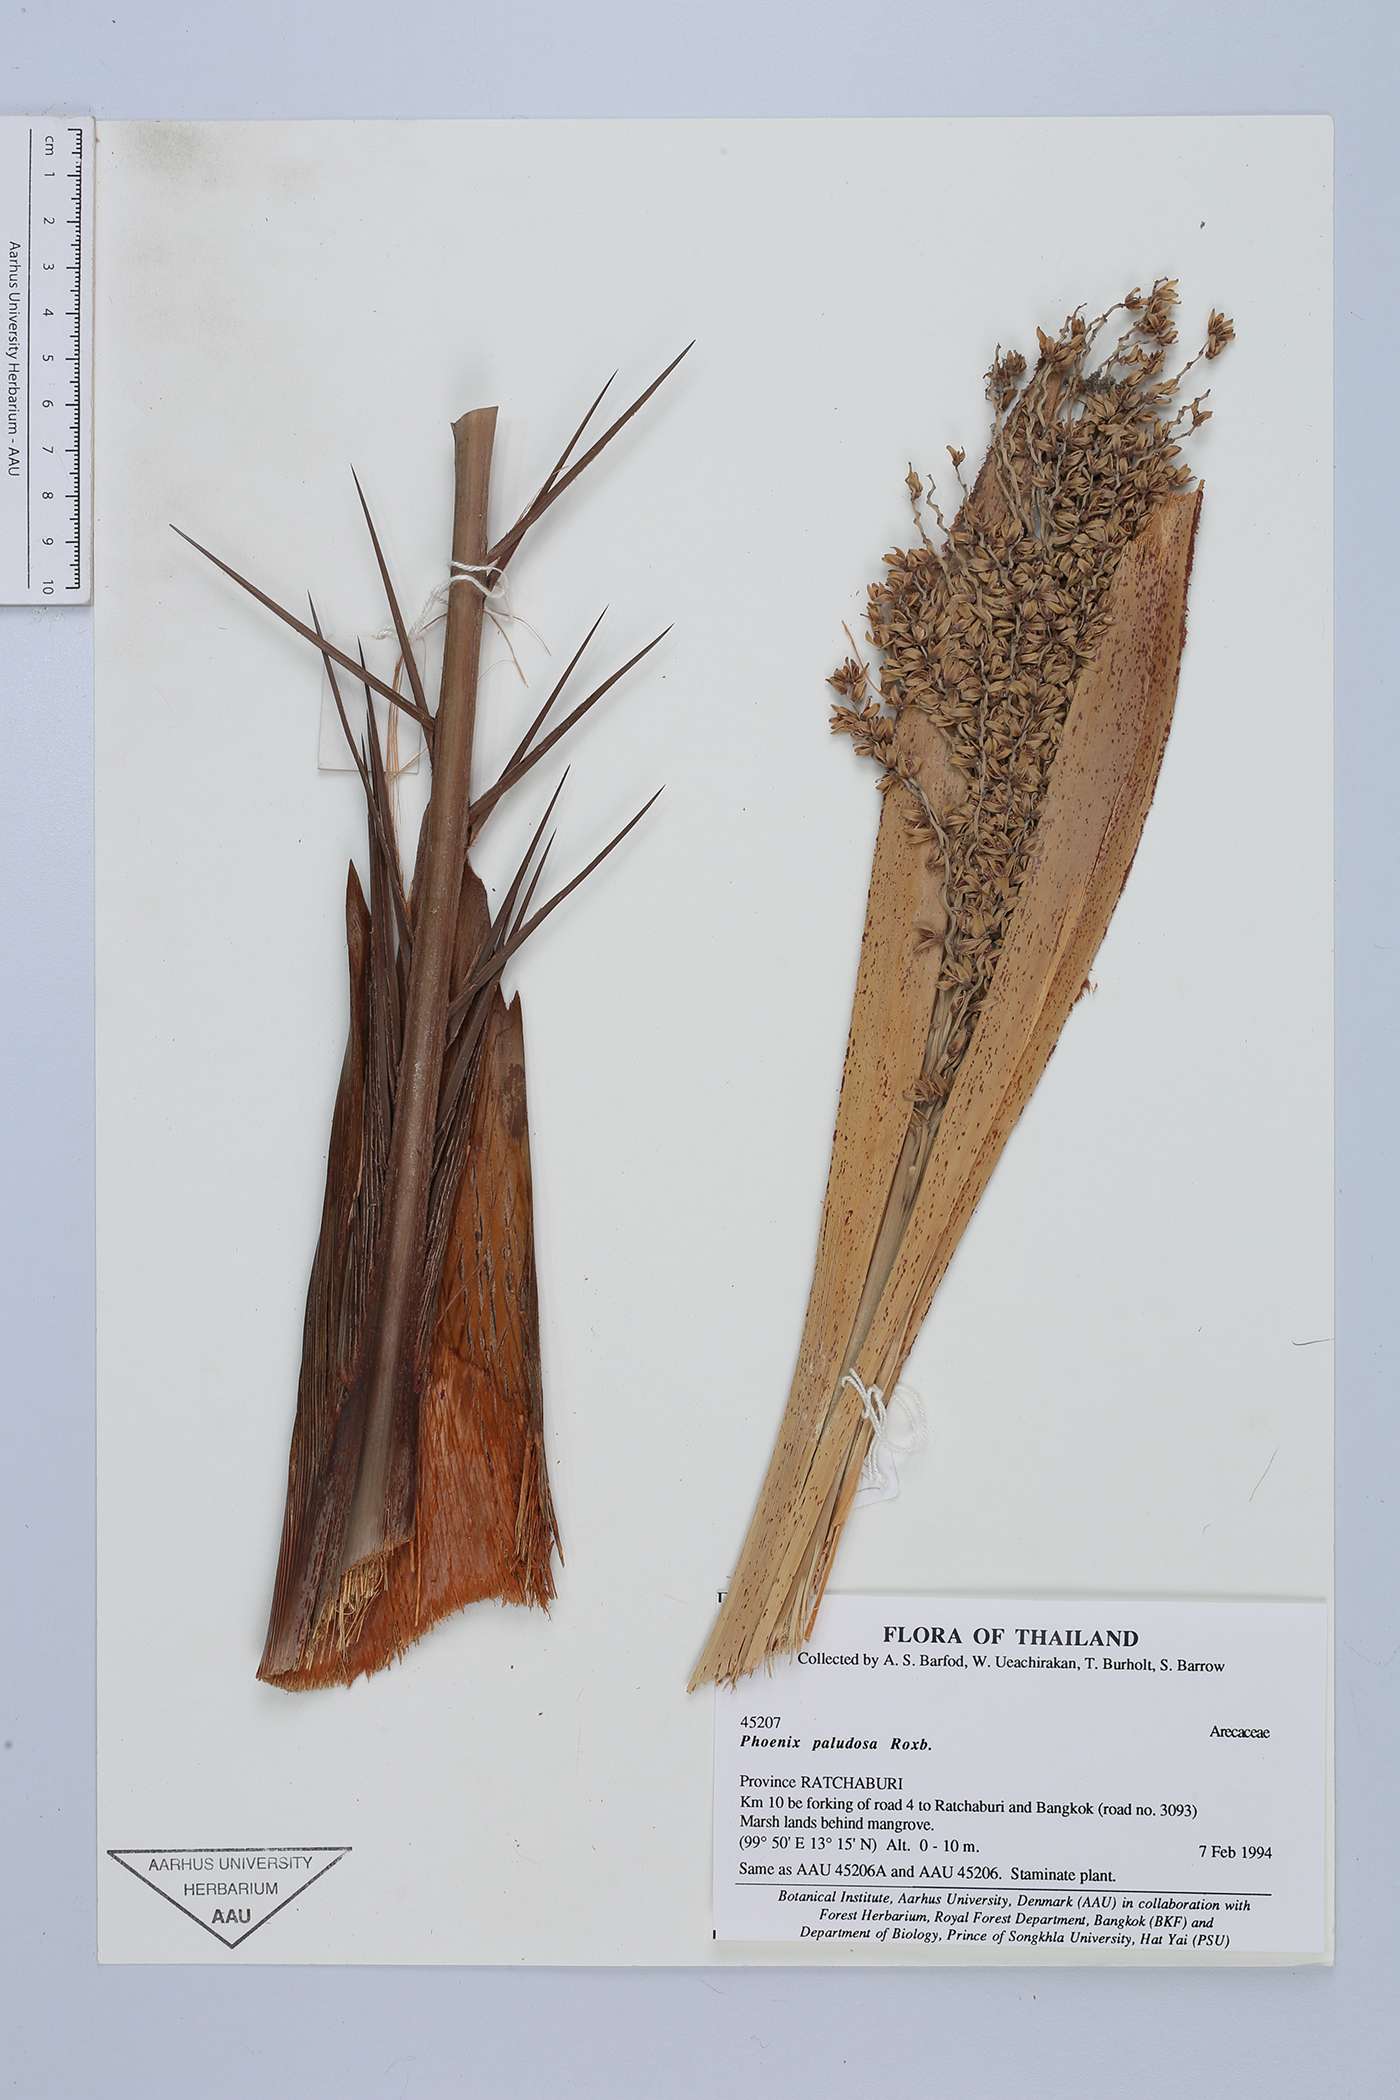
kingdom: Plantae
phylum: Tracheophyta
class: Liliopsida
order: Arecales
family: Arecaceae
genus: Phoenix
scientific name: Phoenix paludosa
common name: Mangrove date palm
